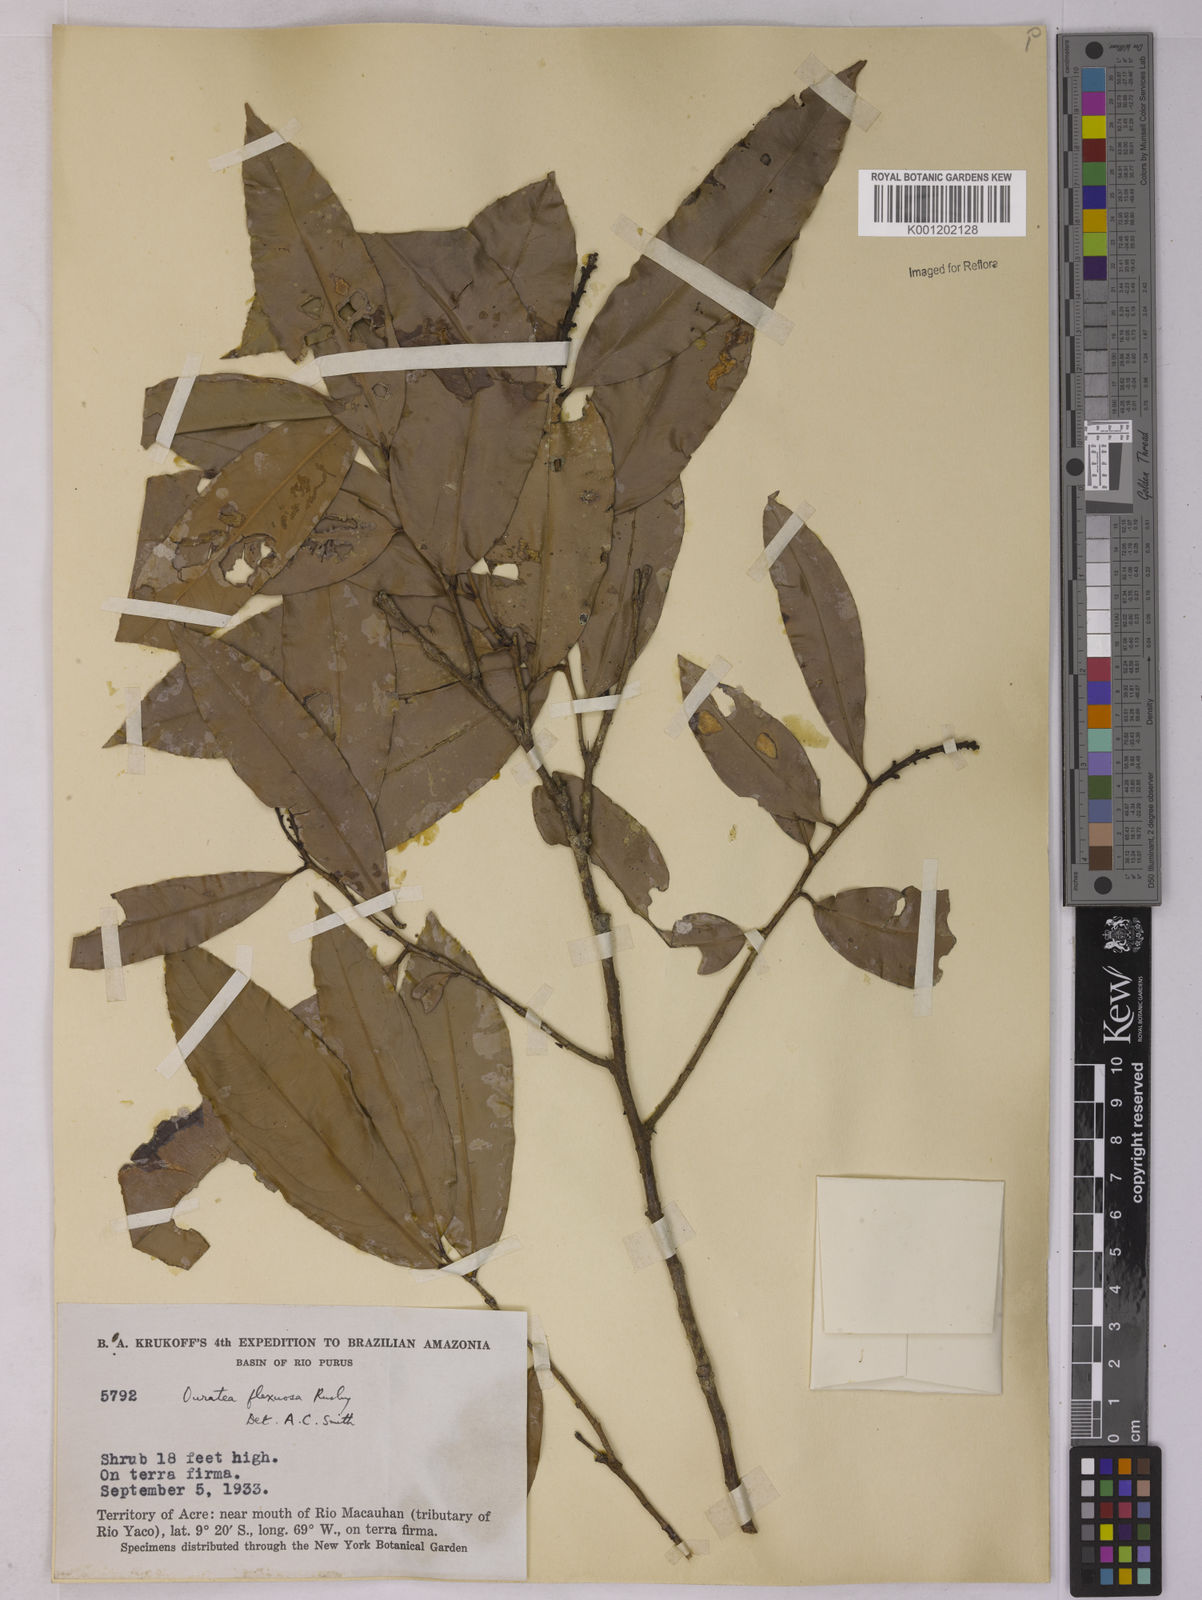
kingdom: Plantae
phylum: Tracheophyta
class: Magnoliopsida
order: Malpighiales
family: Ochnaceae
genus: Ouratea
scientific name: Ouratea flexuosa
